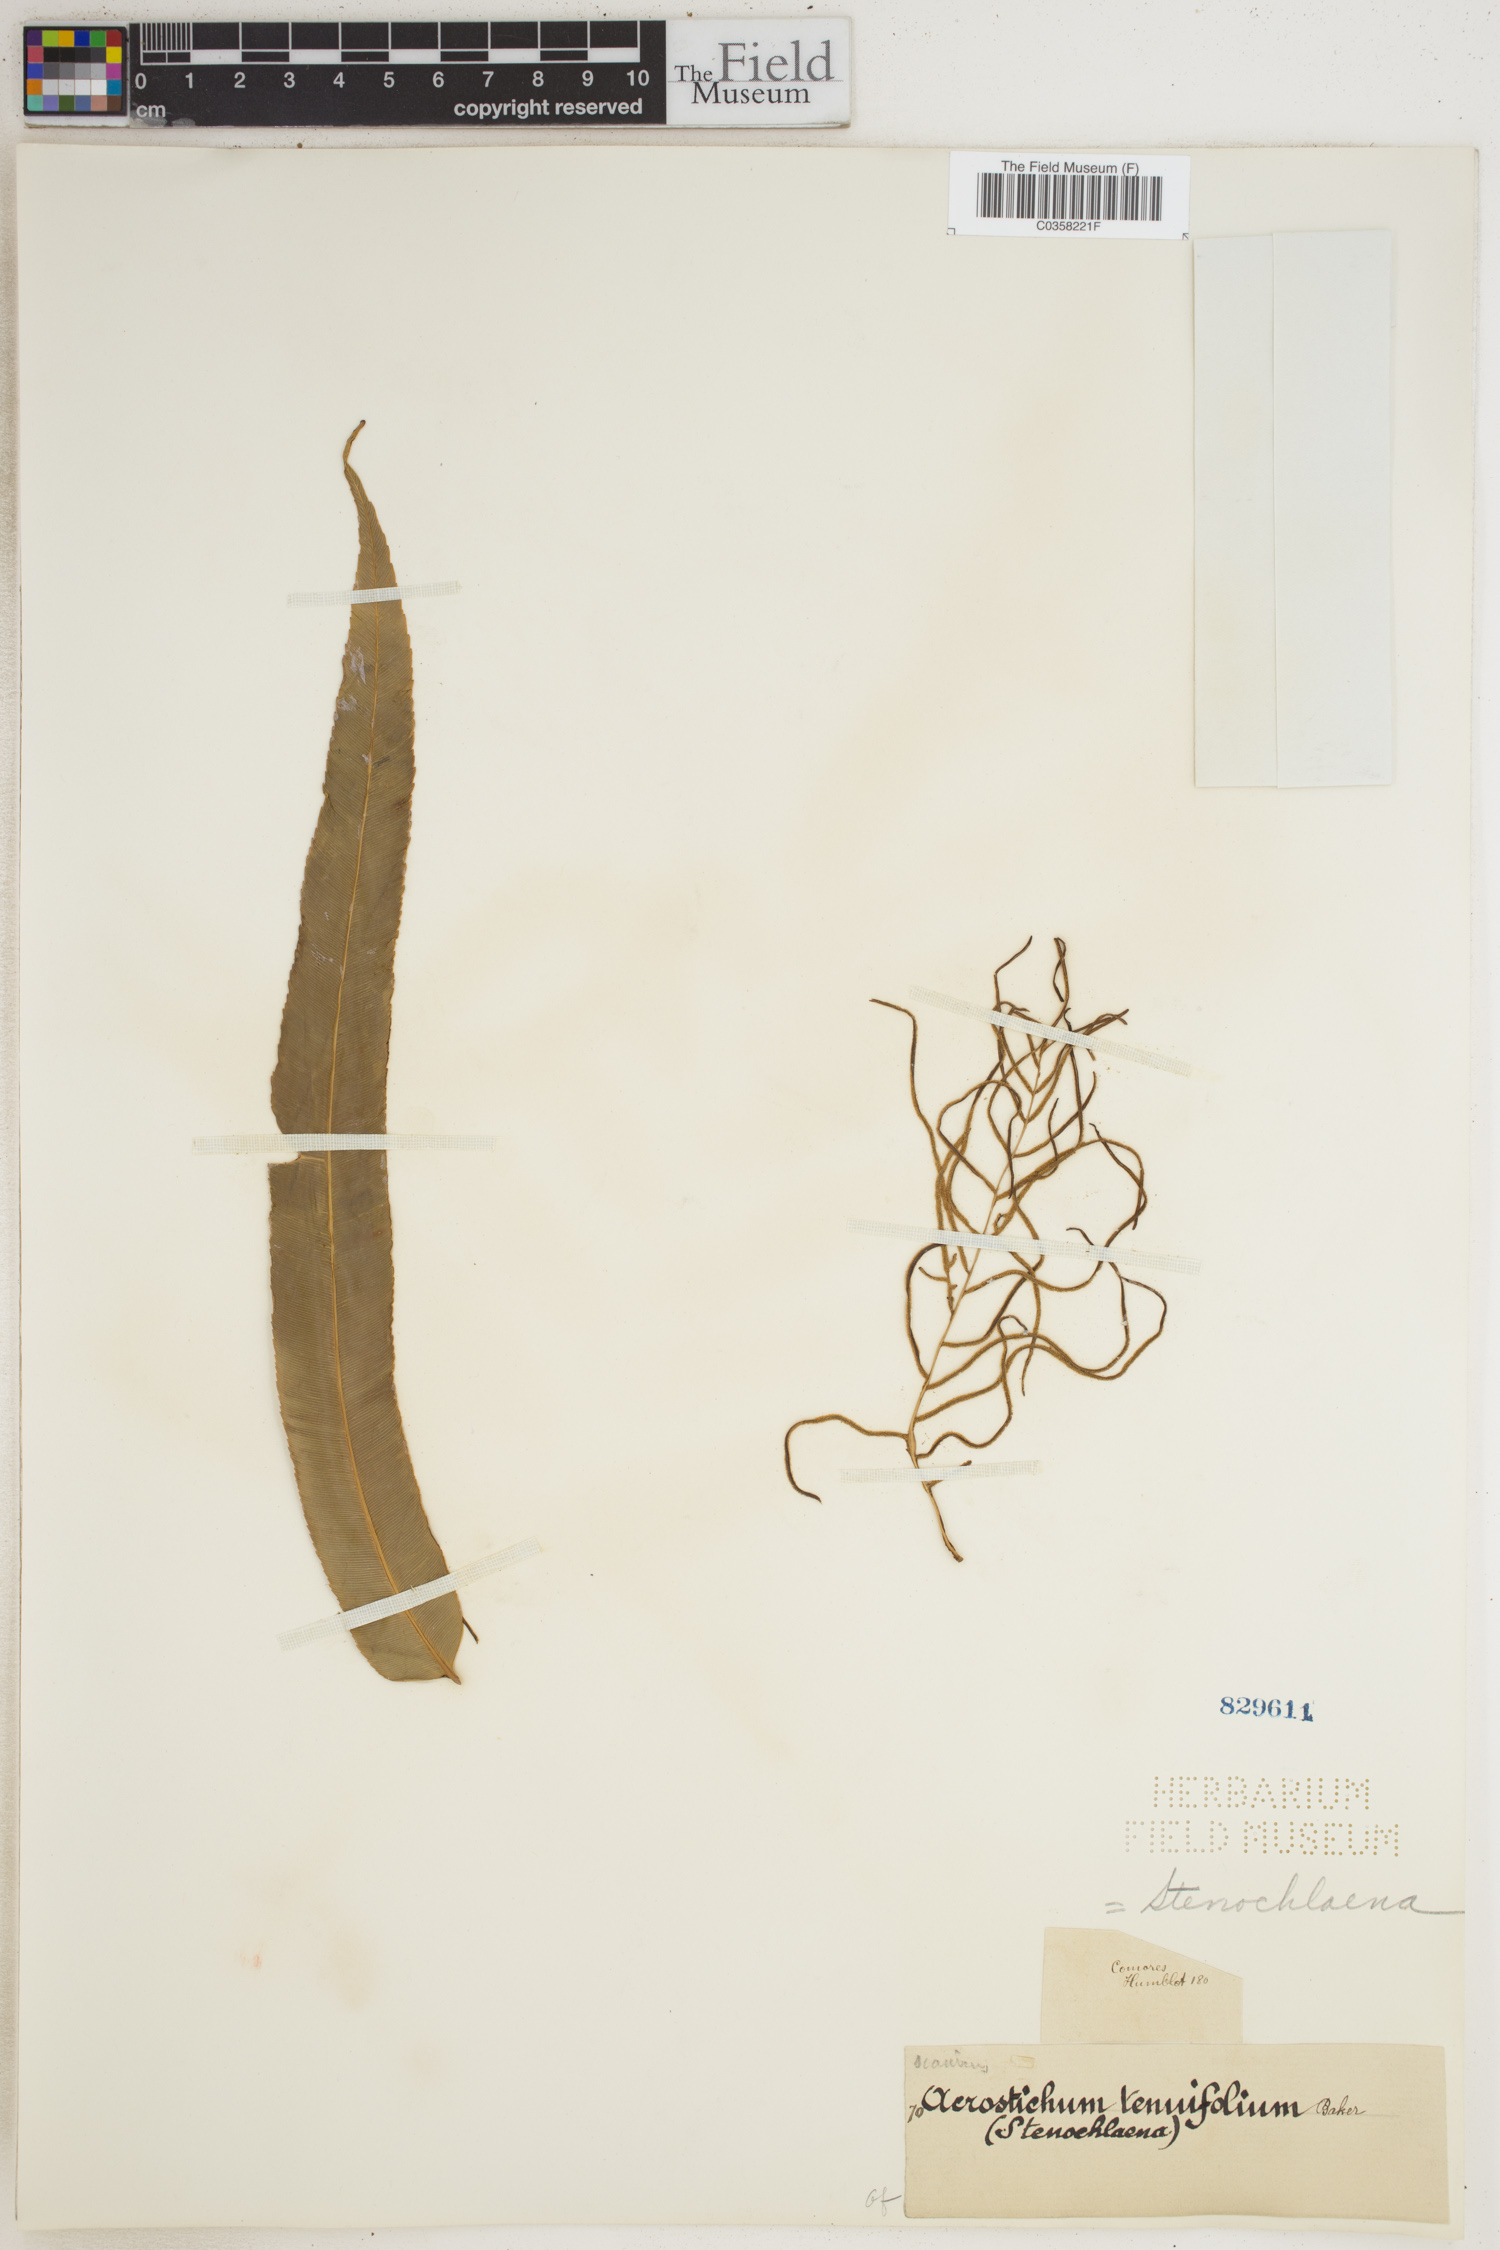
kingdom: Plantae
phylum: Tracheophyta
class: Polypodiopsida
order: Polypodiales
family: Blechnaceae
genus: Stenochlaena
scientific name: Stenochlaena tenuifolia
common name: Giant vine fern
